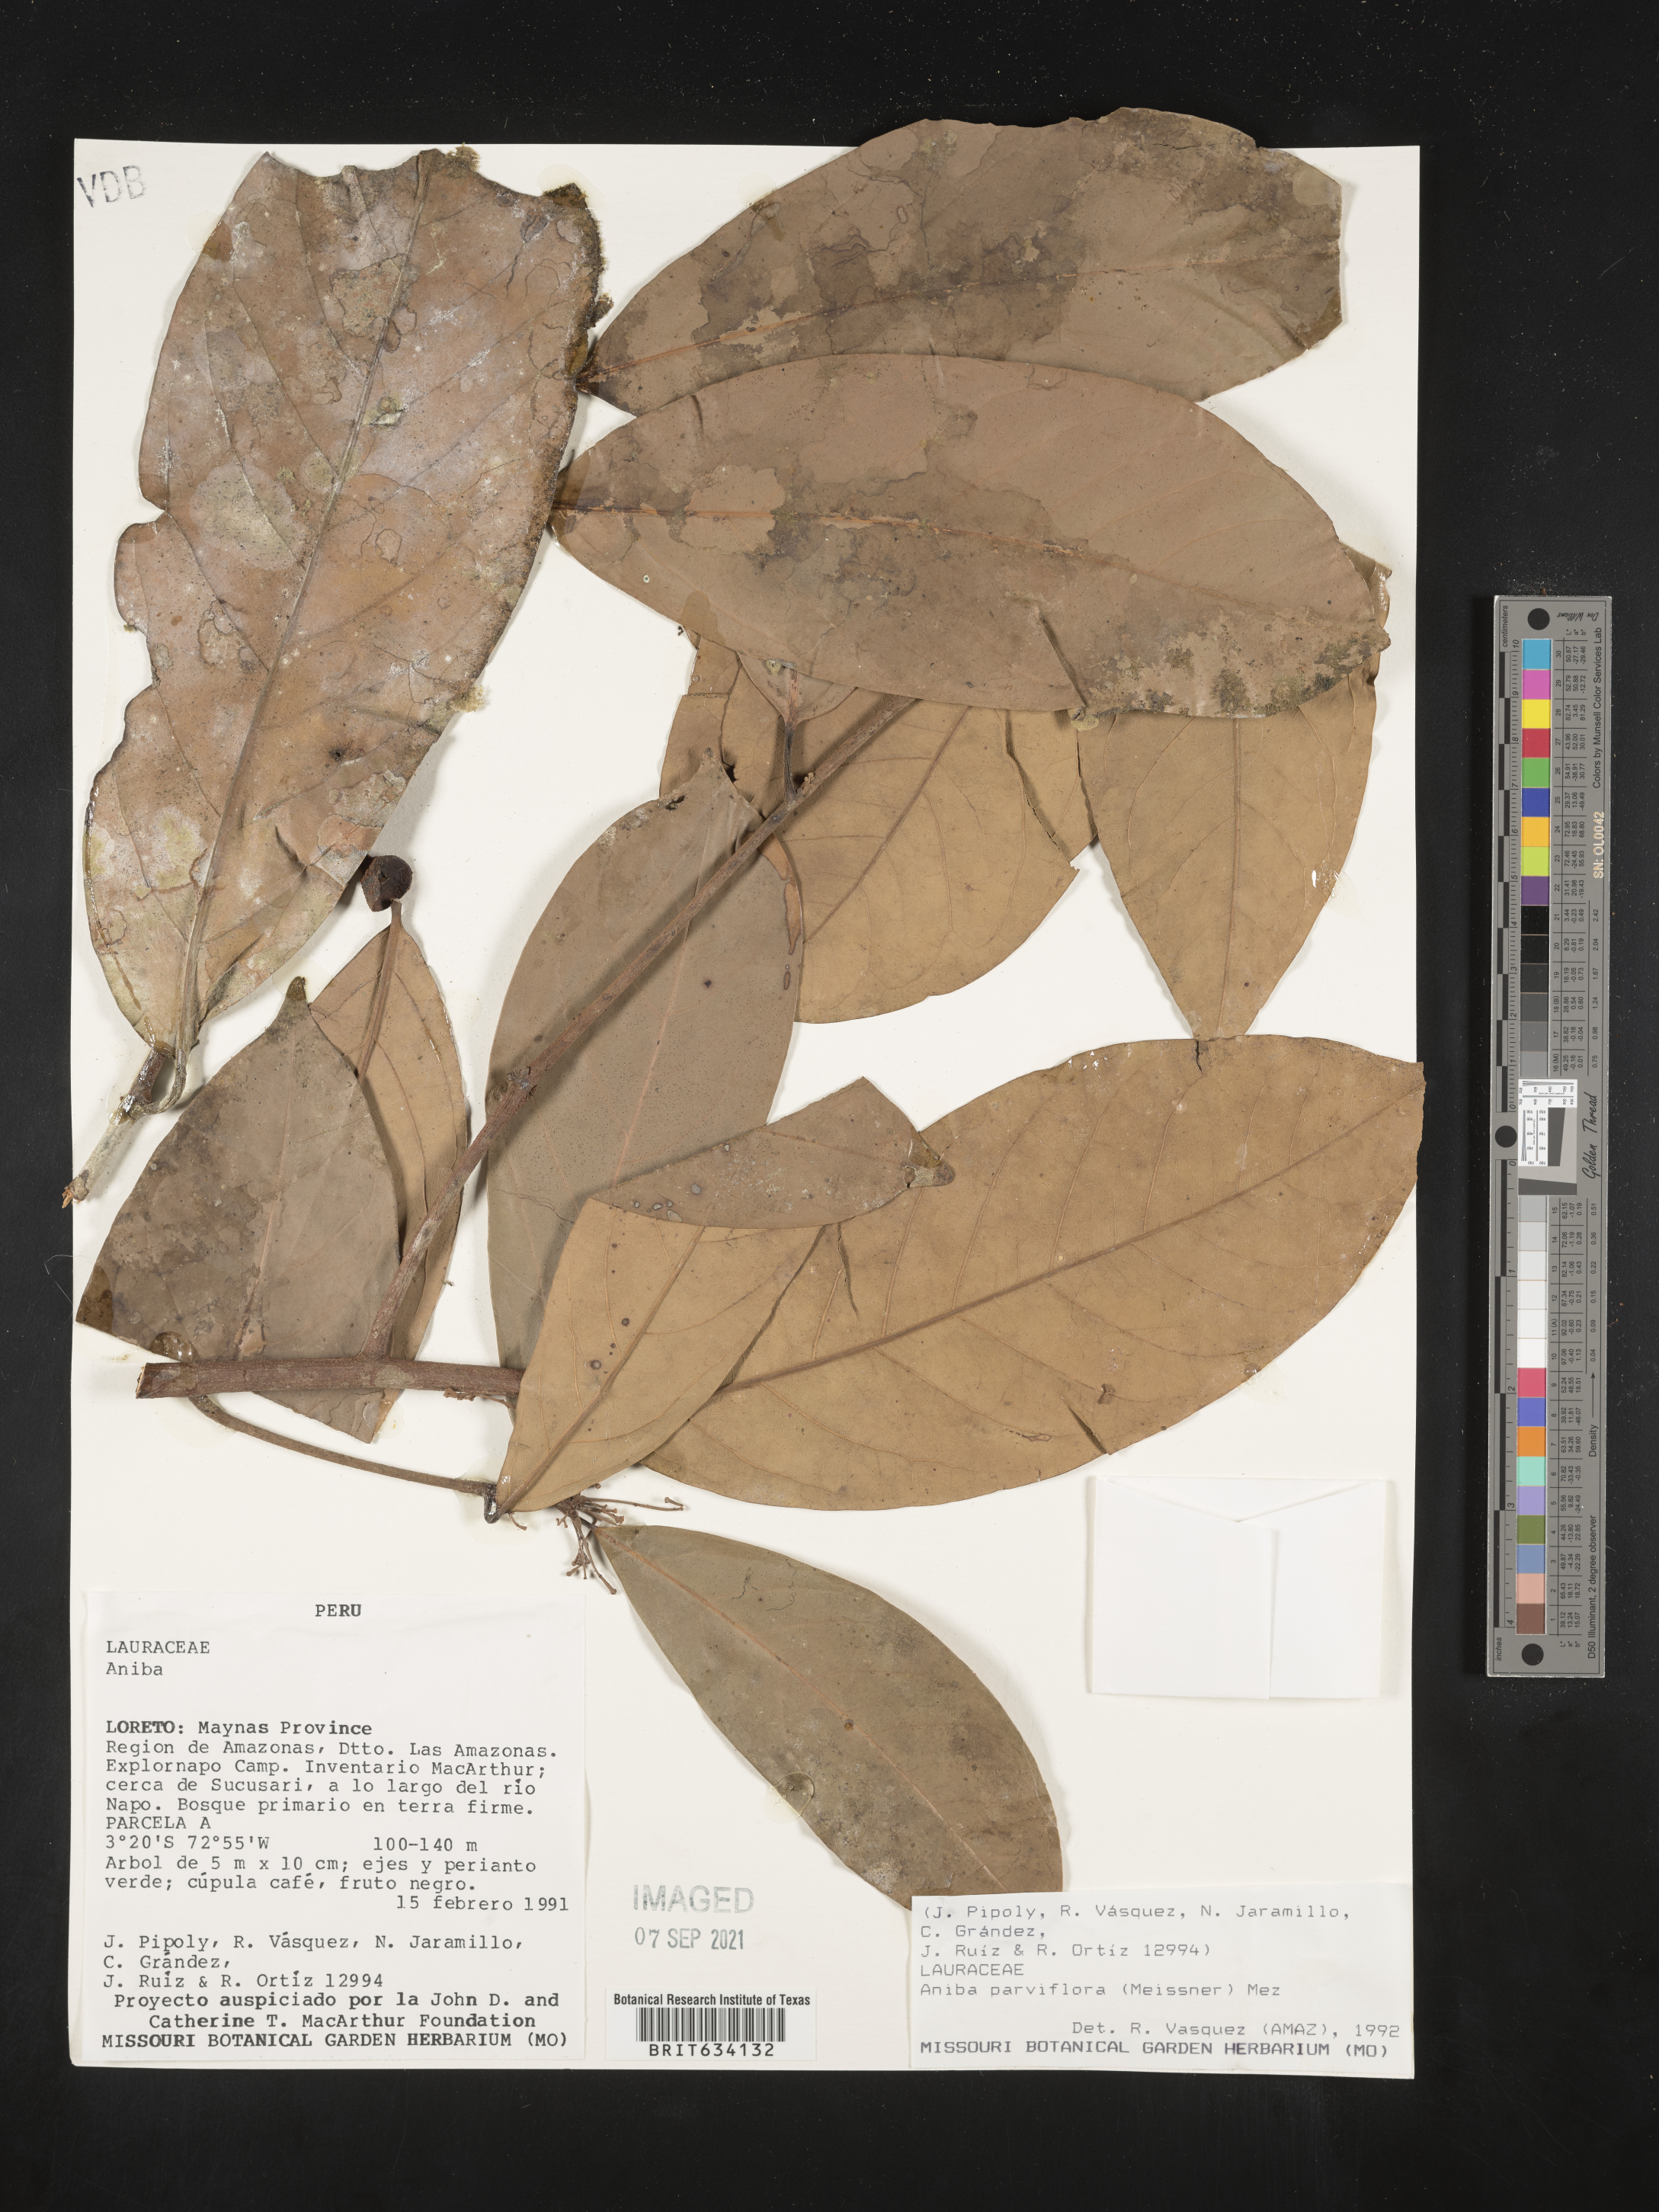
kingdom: Plantae
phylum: Tracheophyta
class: Magnoliopsida
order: Laurales
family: Lauraceae
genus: Aniba
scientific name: Aniba
